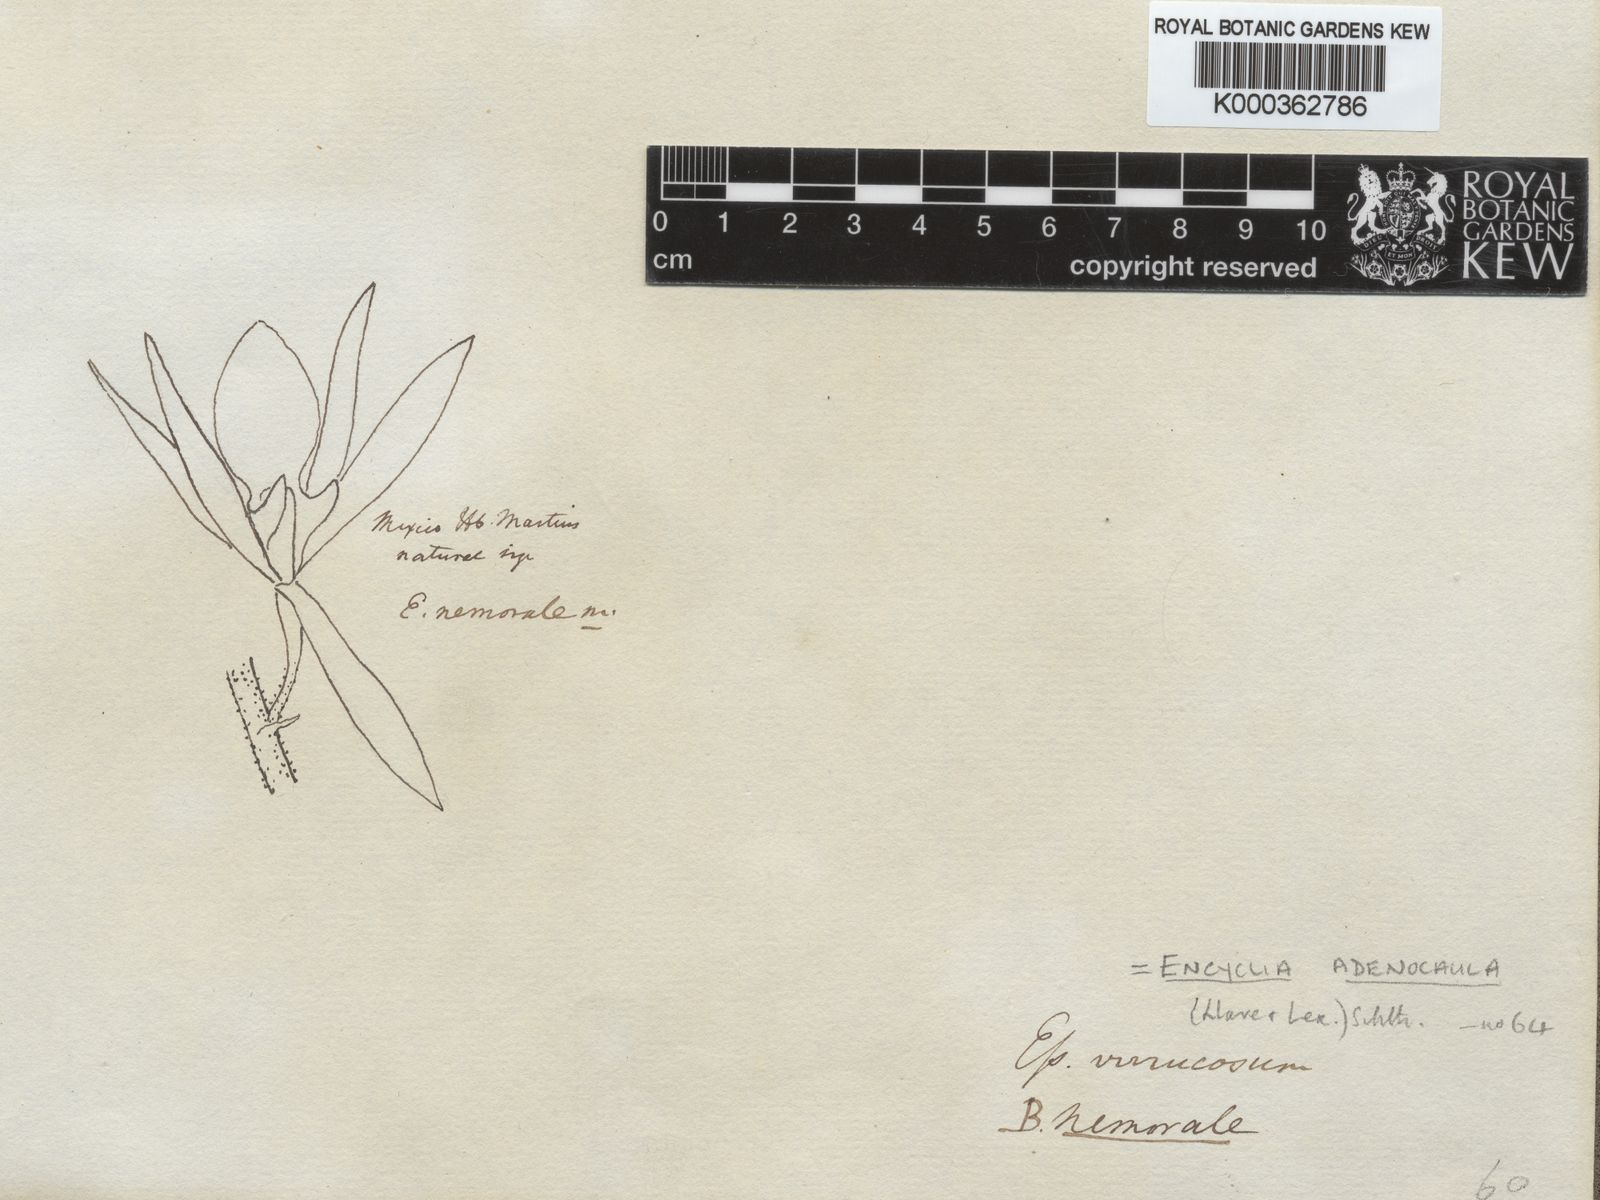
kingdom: Plantae
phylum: Tracheophyta
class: Liliopsida
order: Asparagales
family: Orchidaceae
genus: Encyclia
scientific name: Encyclia adenocaula
